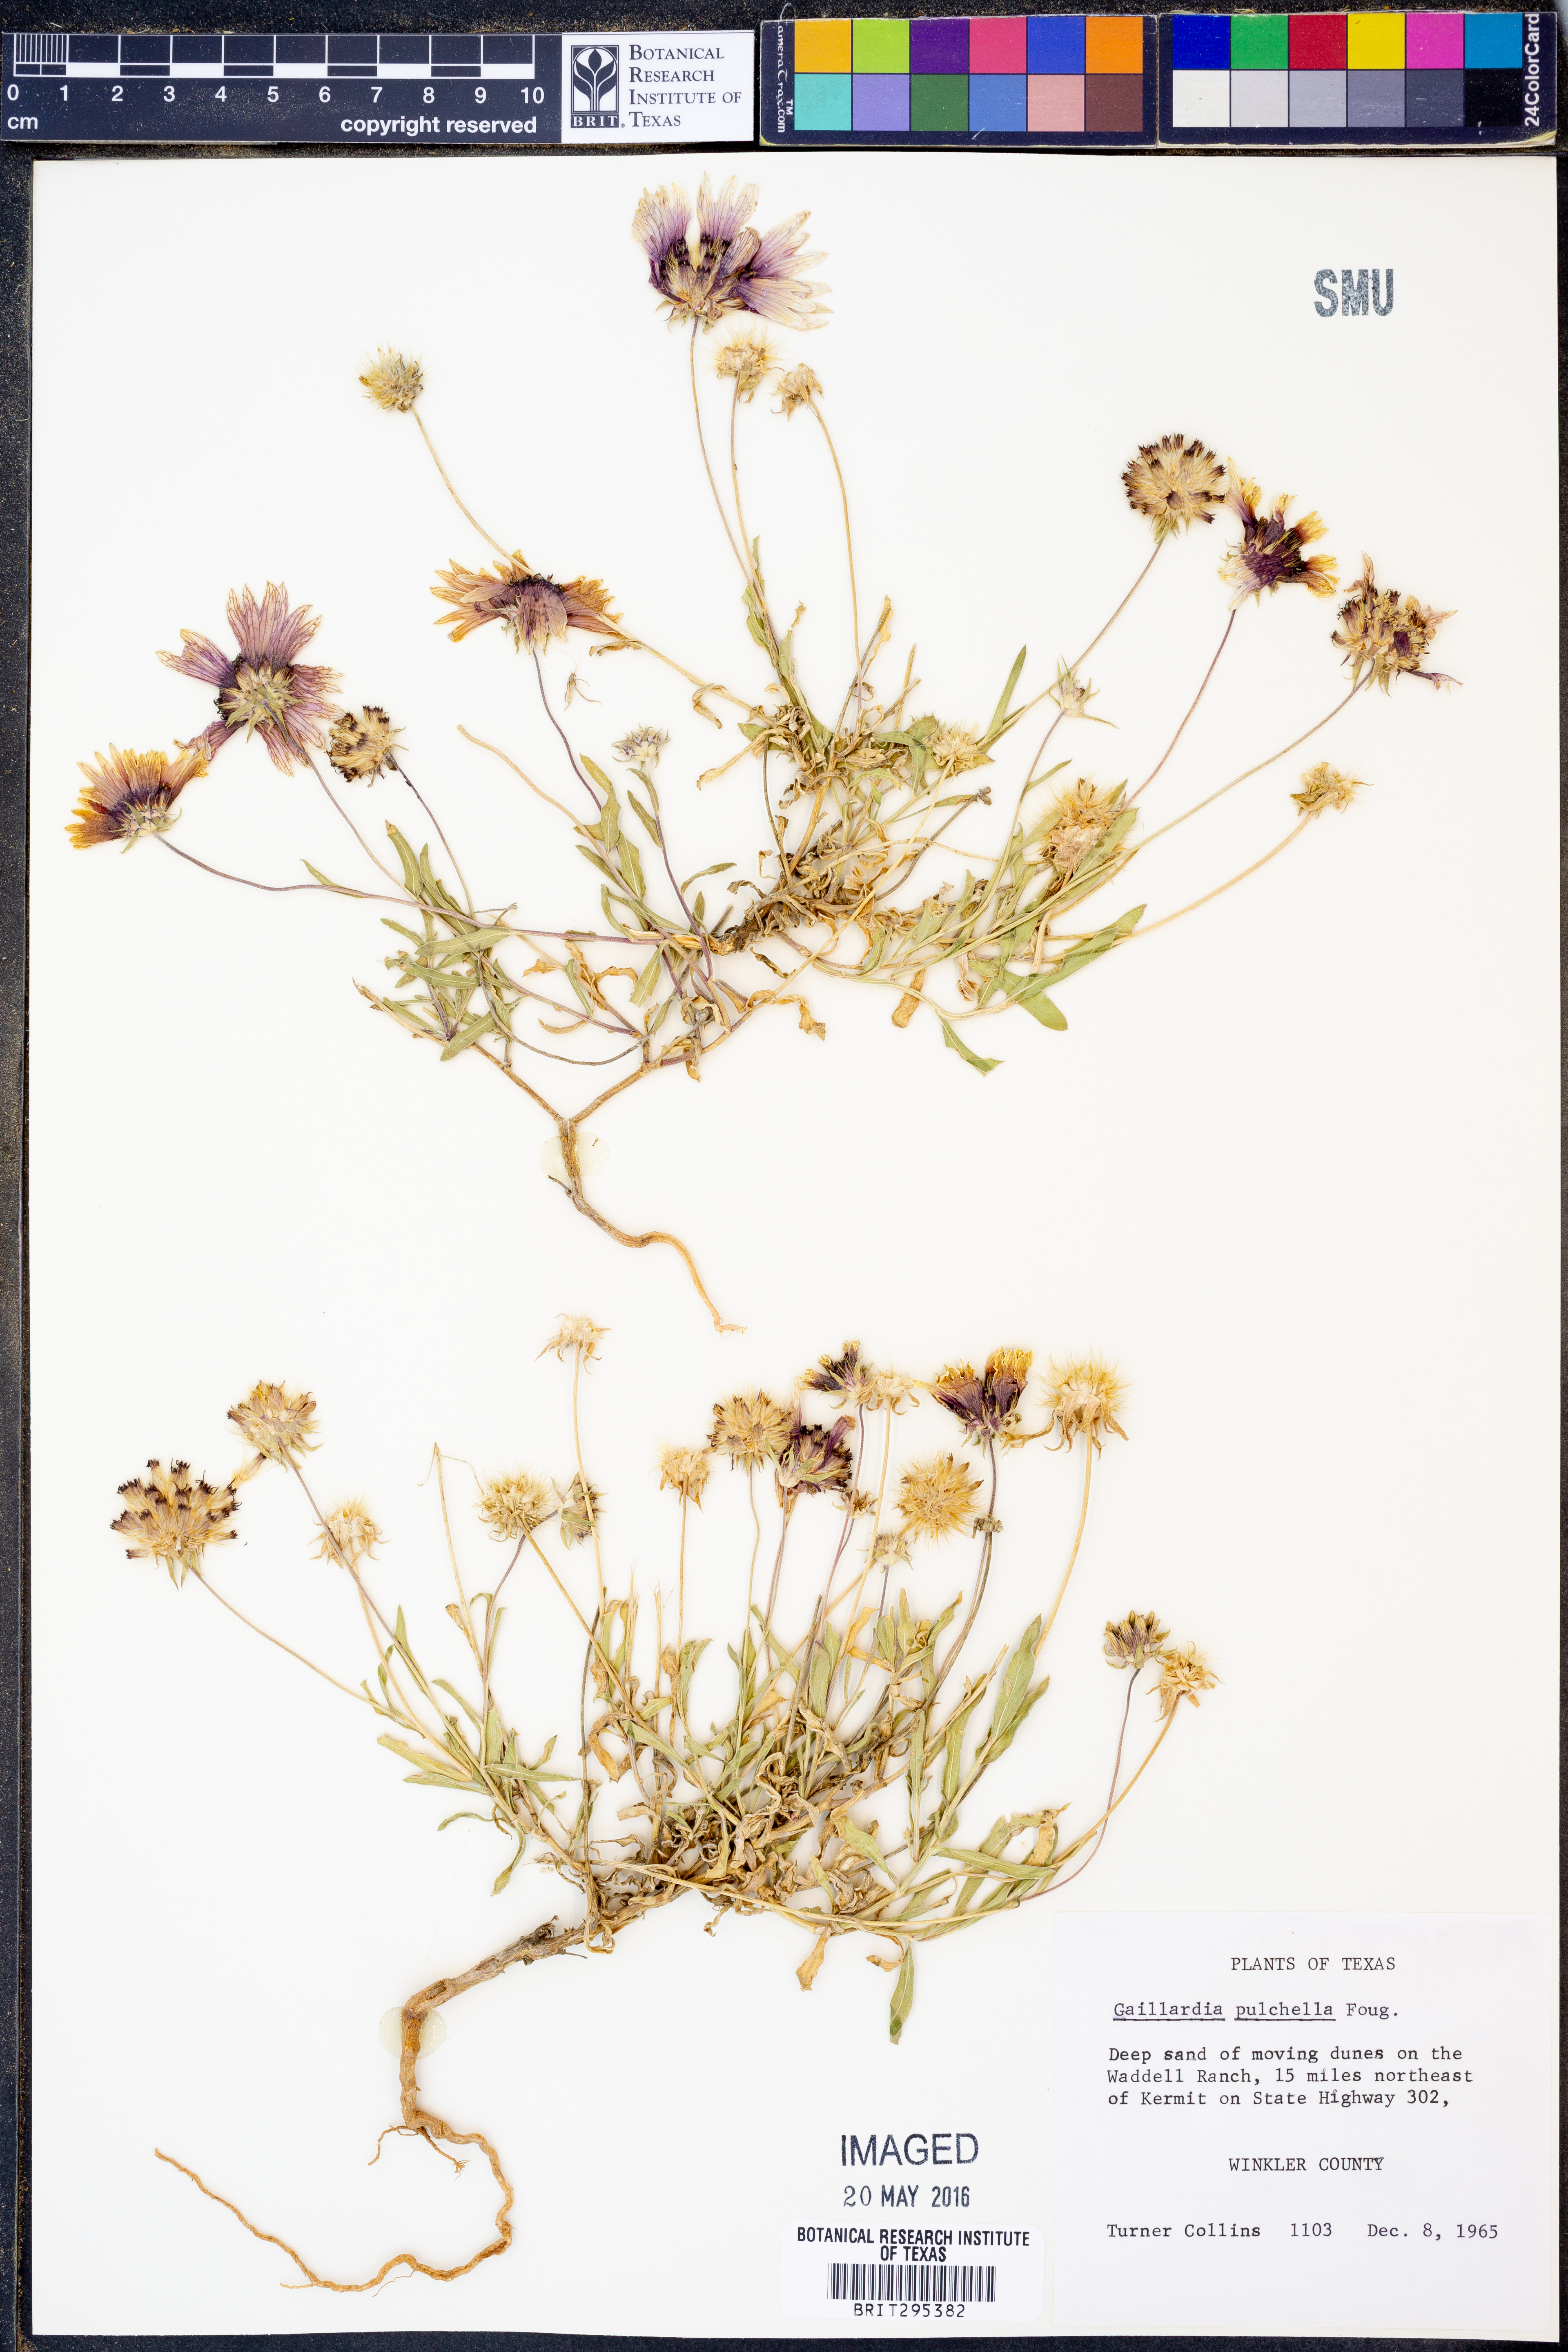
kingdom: Plantae
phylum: Tracheophyta
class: Magnoliopsida
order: Asterales
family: Asteraceae
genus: Gaillardia
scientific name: Gaillardia pulchella
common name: Firewheel
